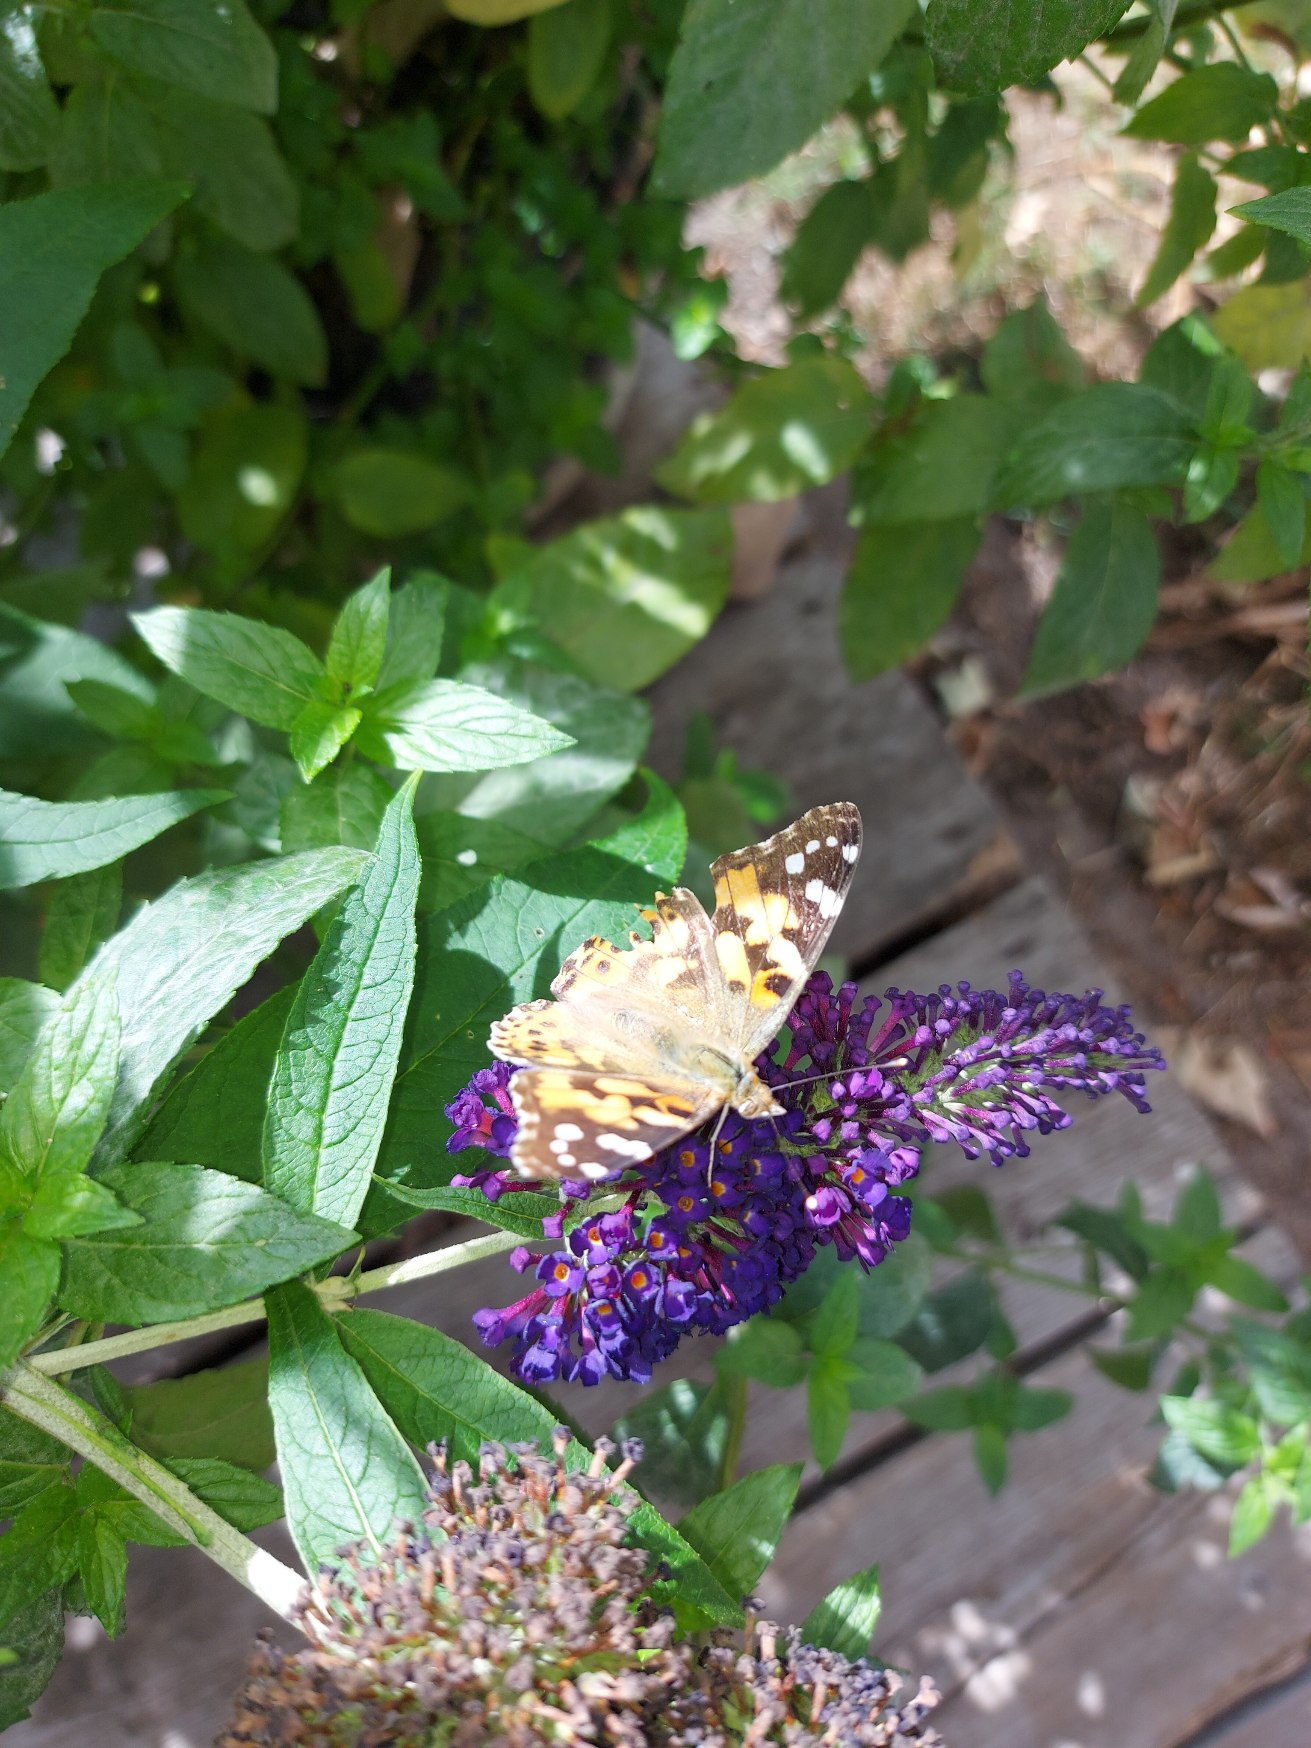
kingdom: Animalia
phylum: Arthropoda
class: Insecta
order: Lepidoptera
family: Nymphalidae
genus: Vanessa
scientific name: Vanessa cardui
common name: Tidselsommerfugl
